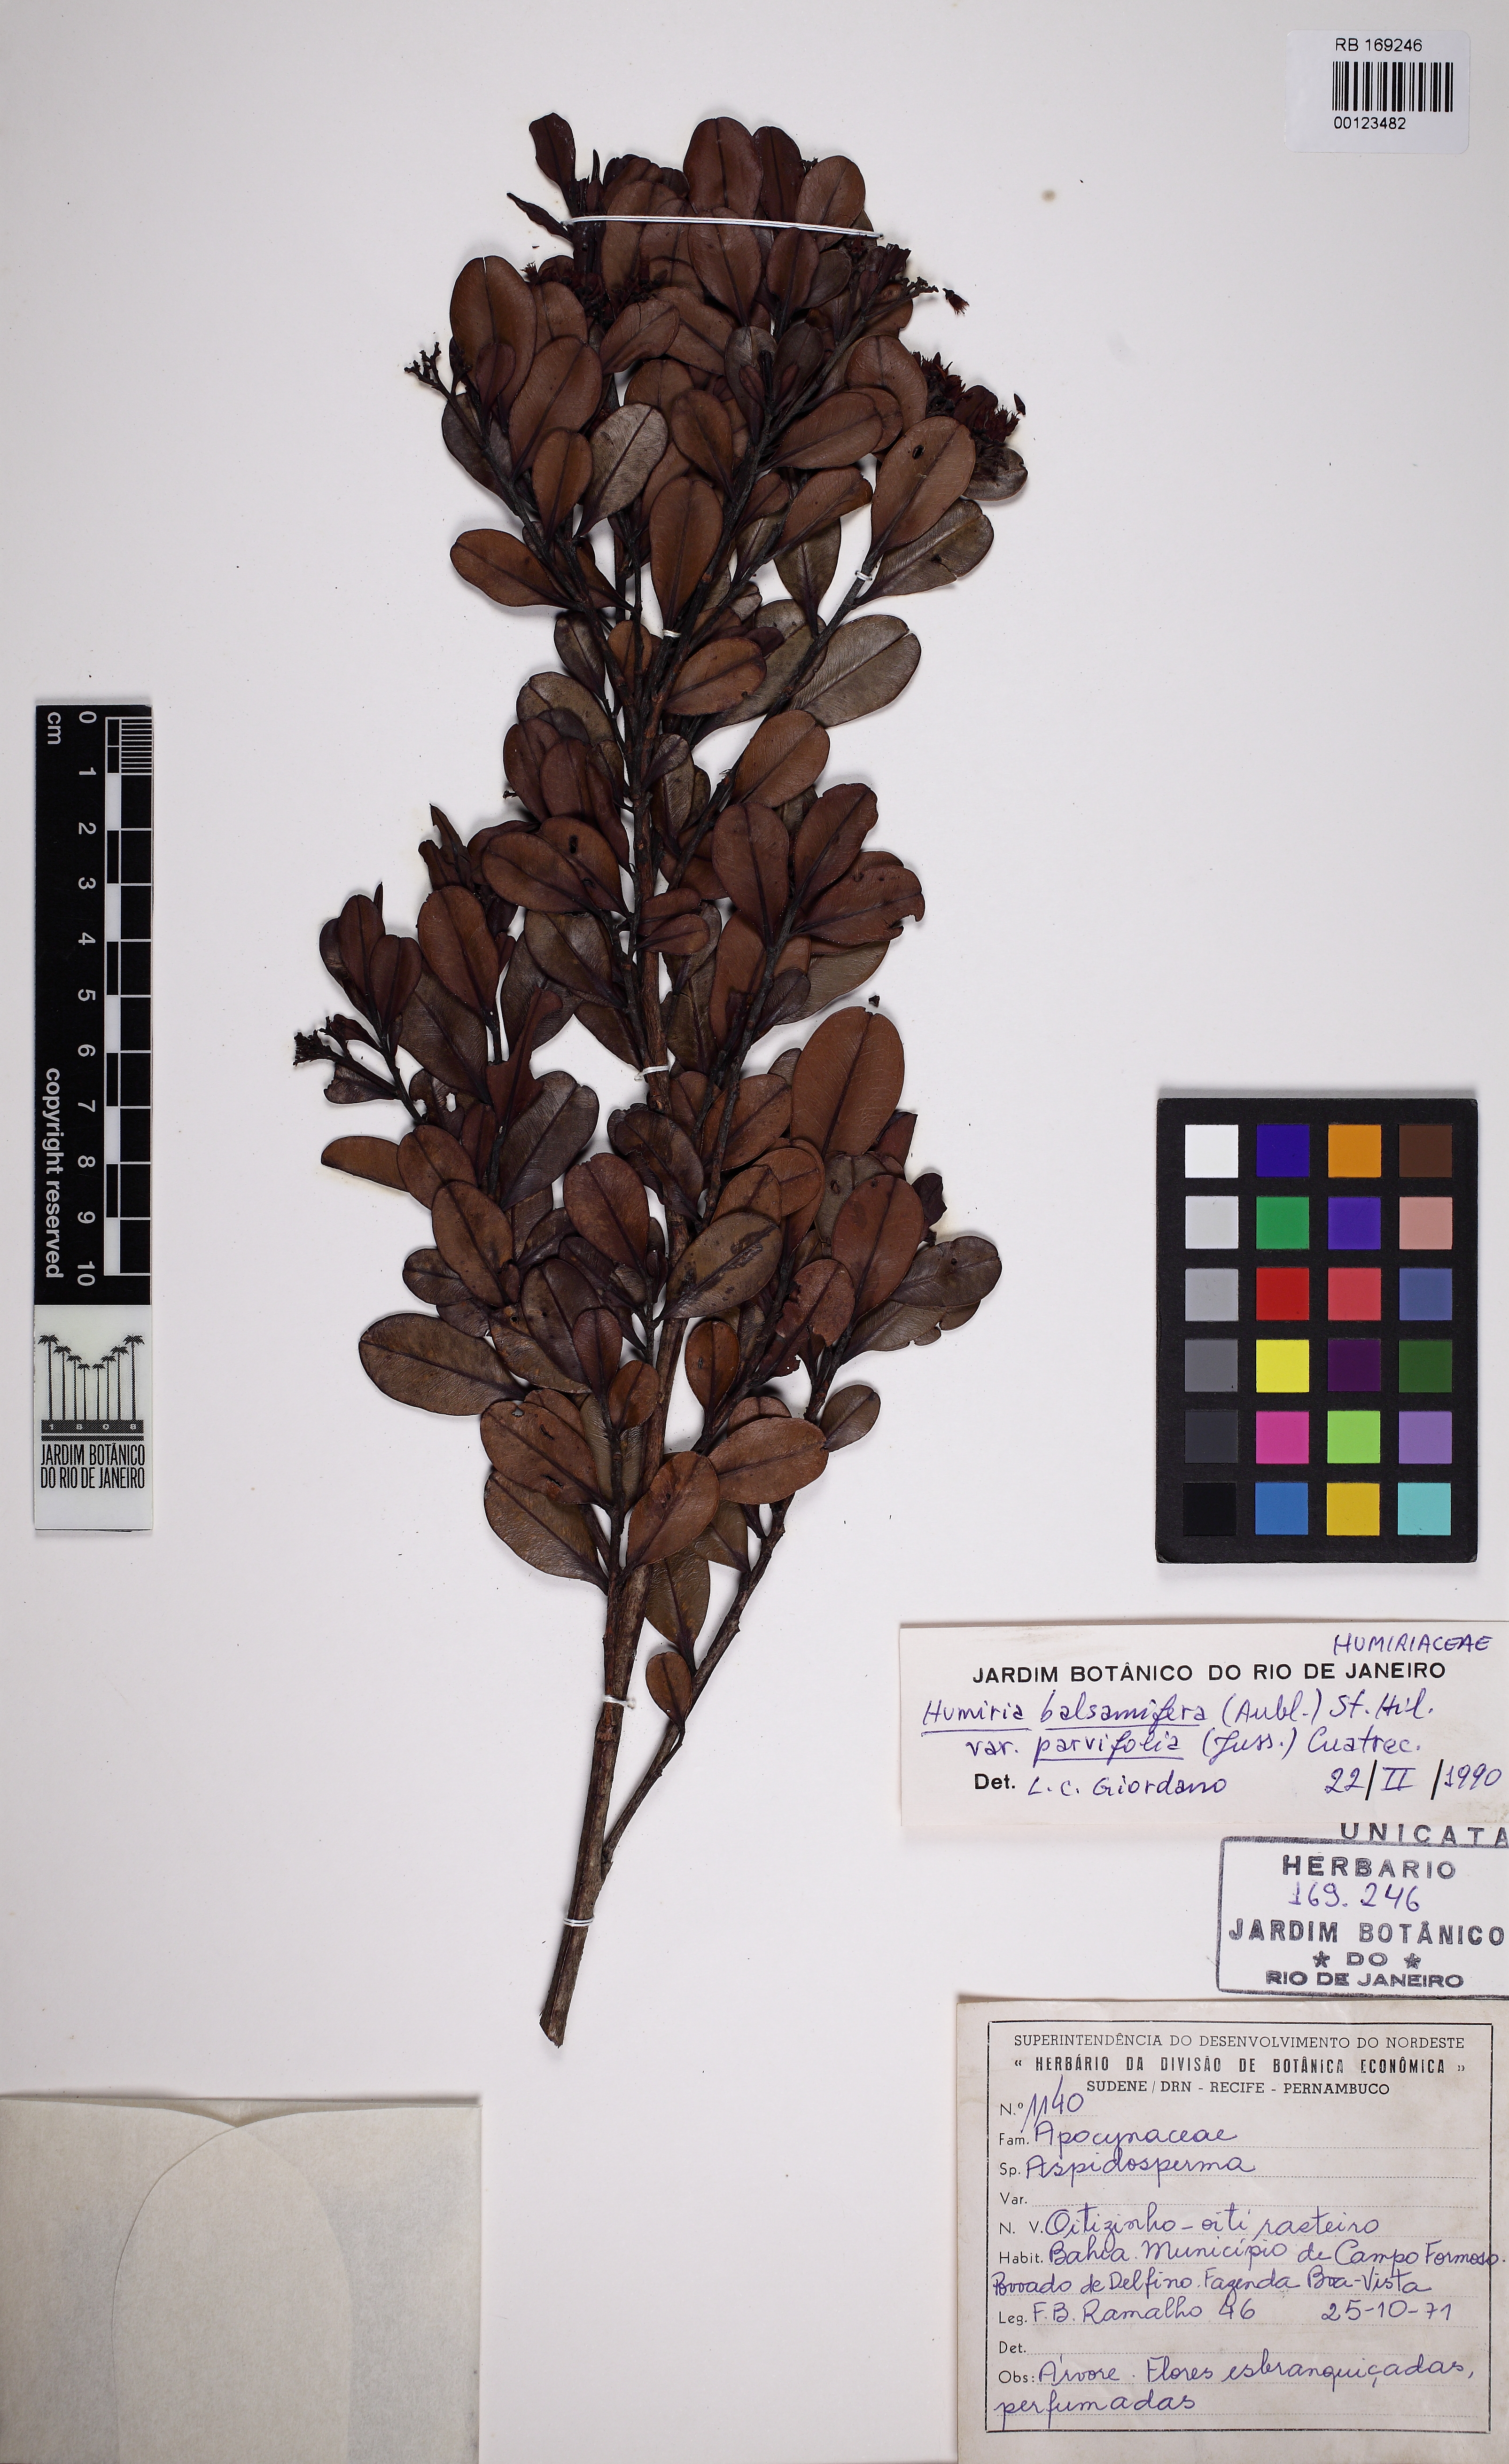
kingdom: Plantae
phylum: Tracheophyta
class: Magnoliopsida
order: Malpighiales
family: Humiriaceae
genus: Humiria
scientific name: Humiria parvifolia
